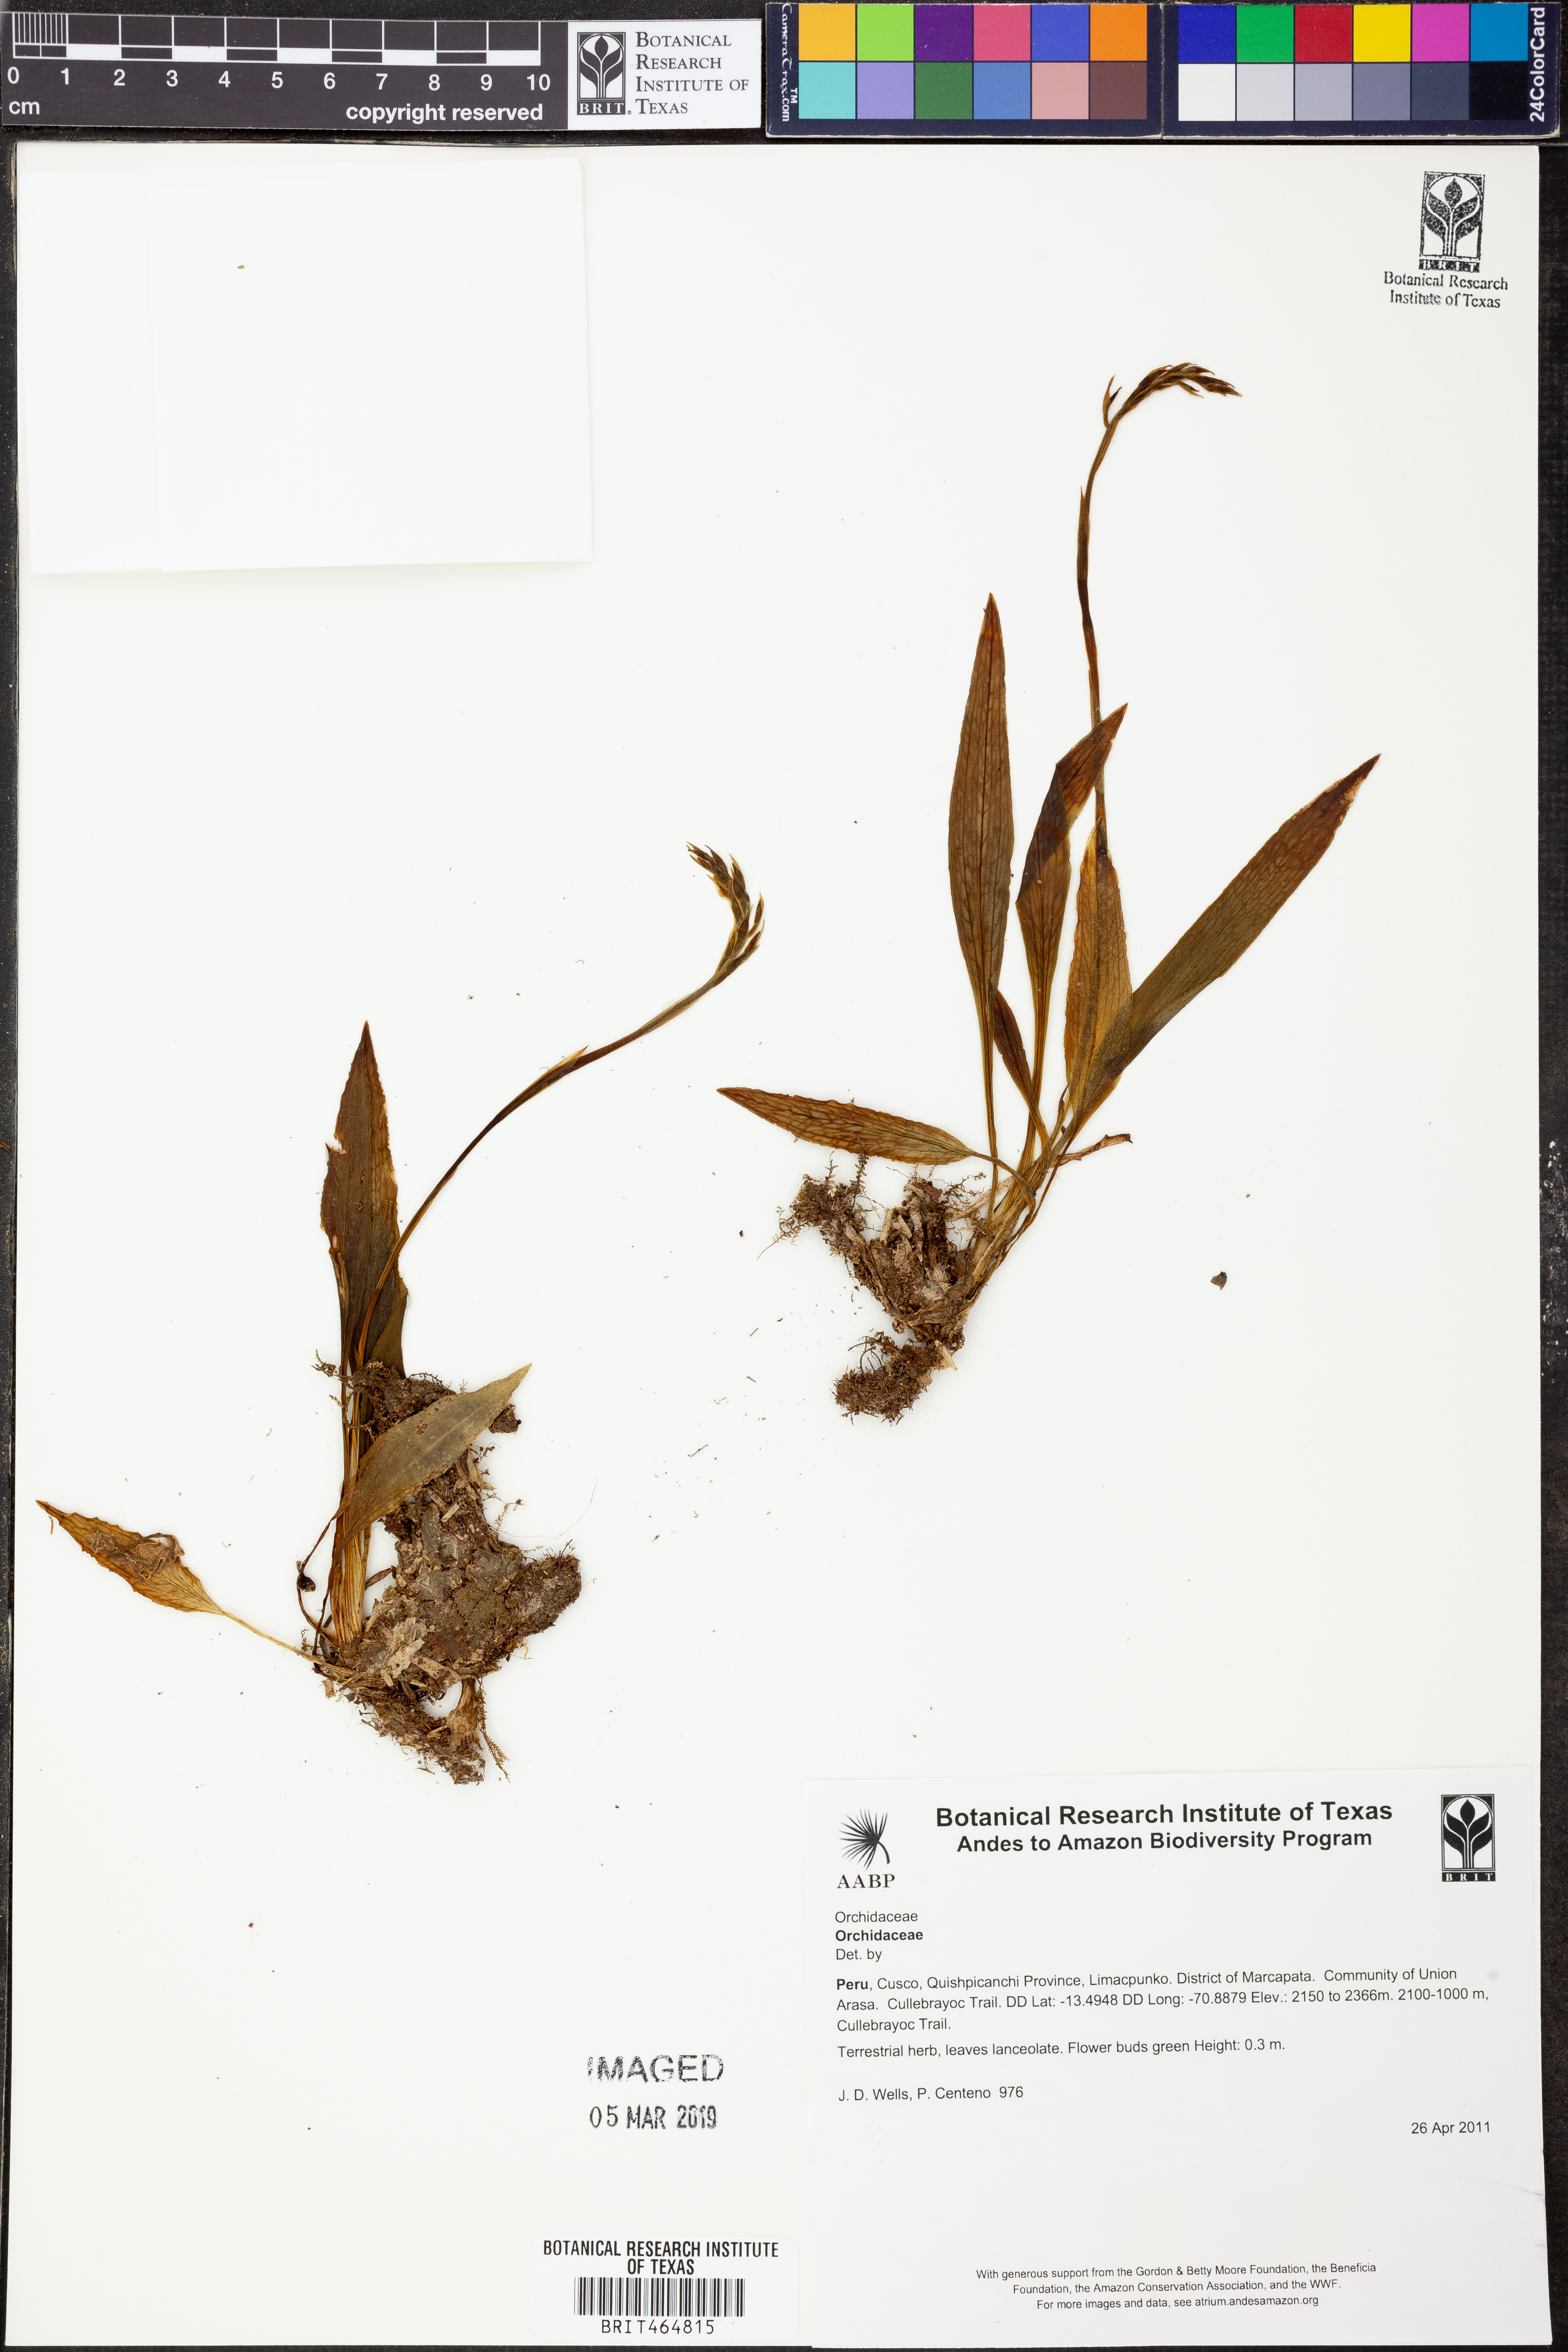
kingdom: Plantae
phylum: Tracheophyta
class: Liliopsida
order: Asparagales
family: Orchidaceae
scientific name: Orchidaceae
